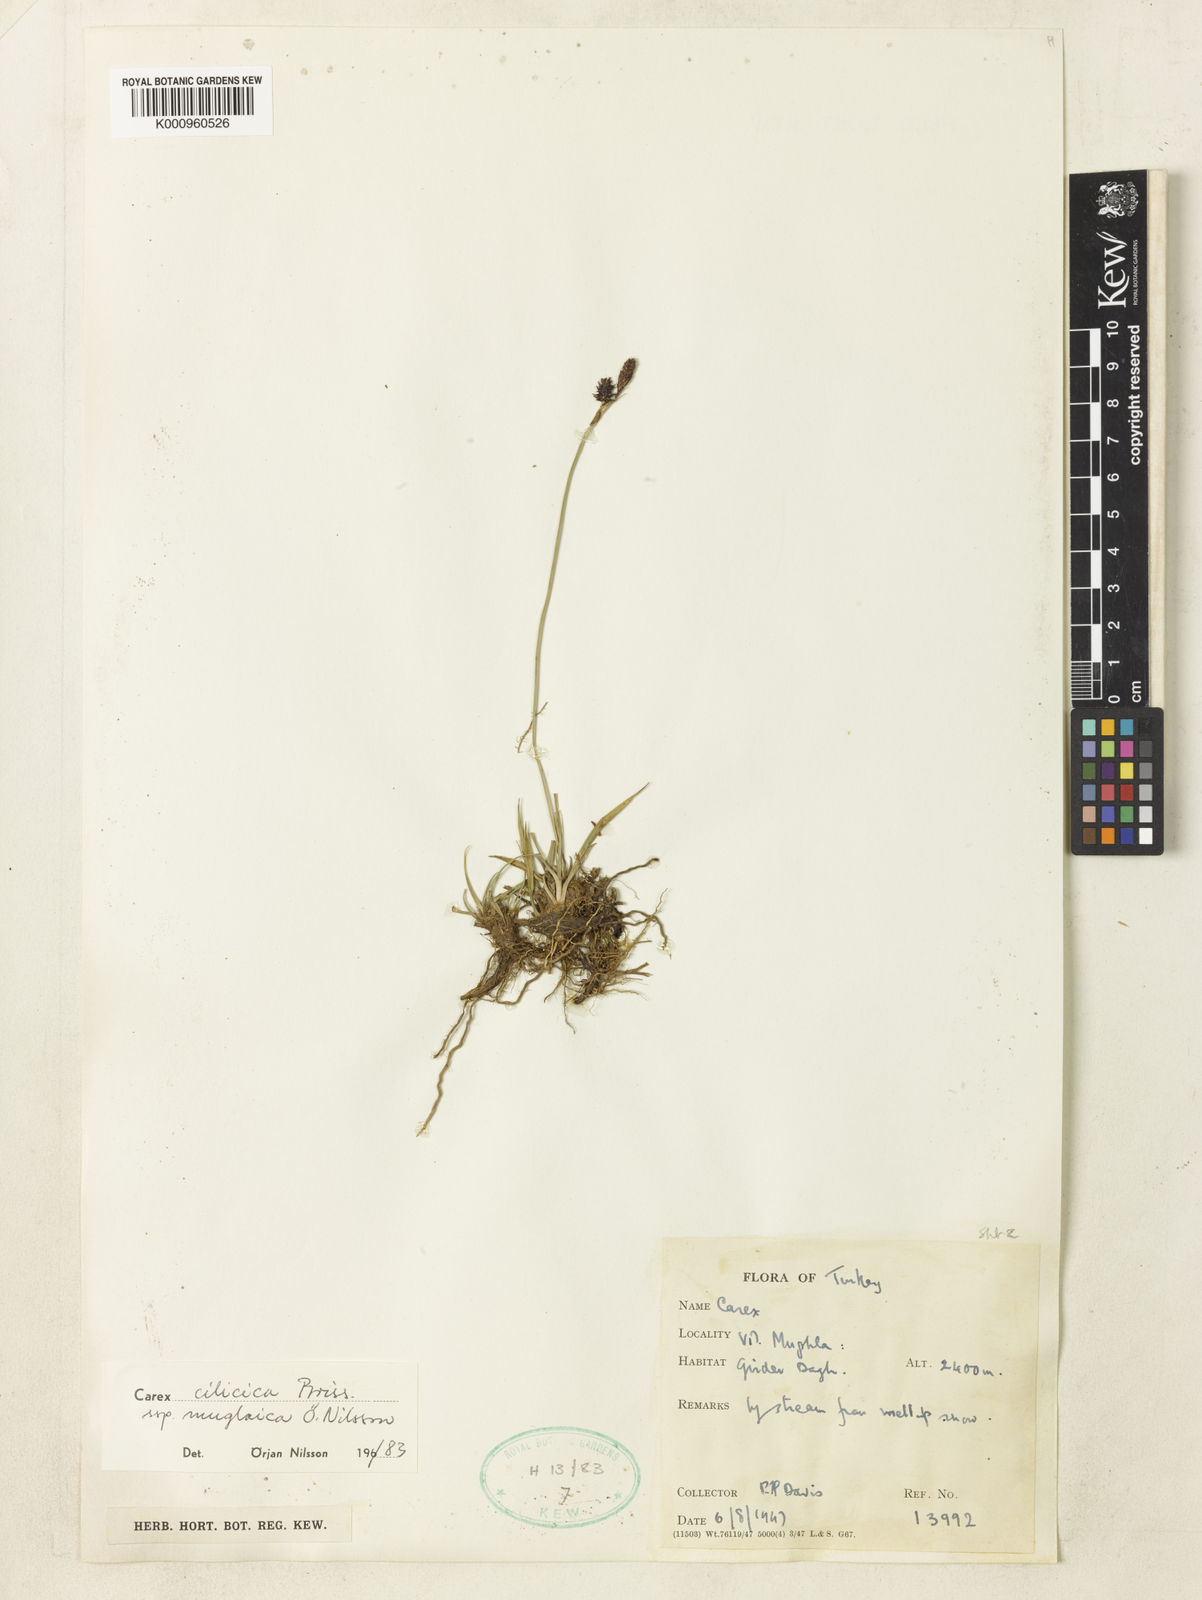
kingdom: Plantae
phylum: Tracheophyta
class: Liliopsida
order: Poales
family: Cyperaceae
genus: Carex
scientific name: Carex cilicica
